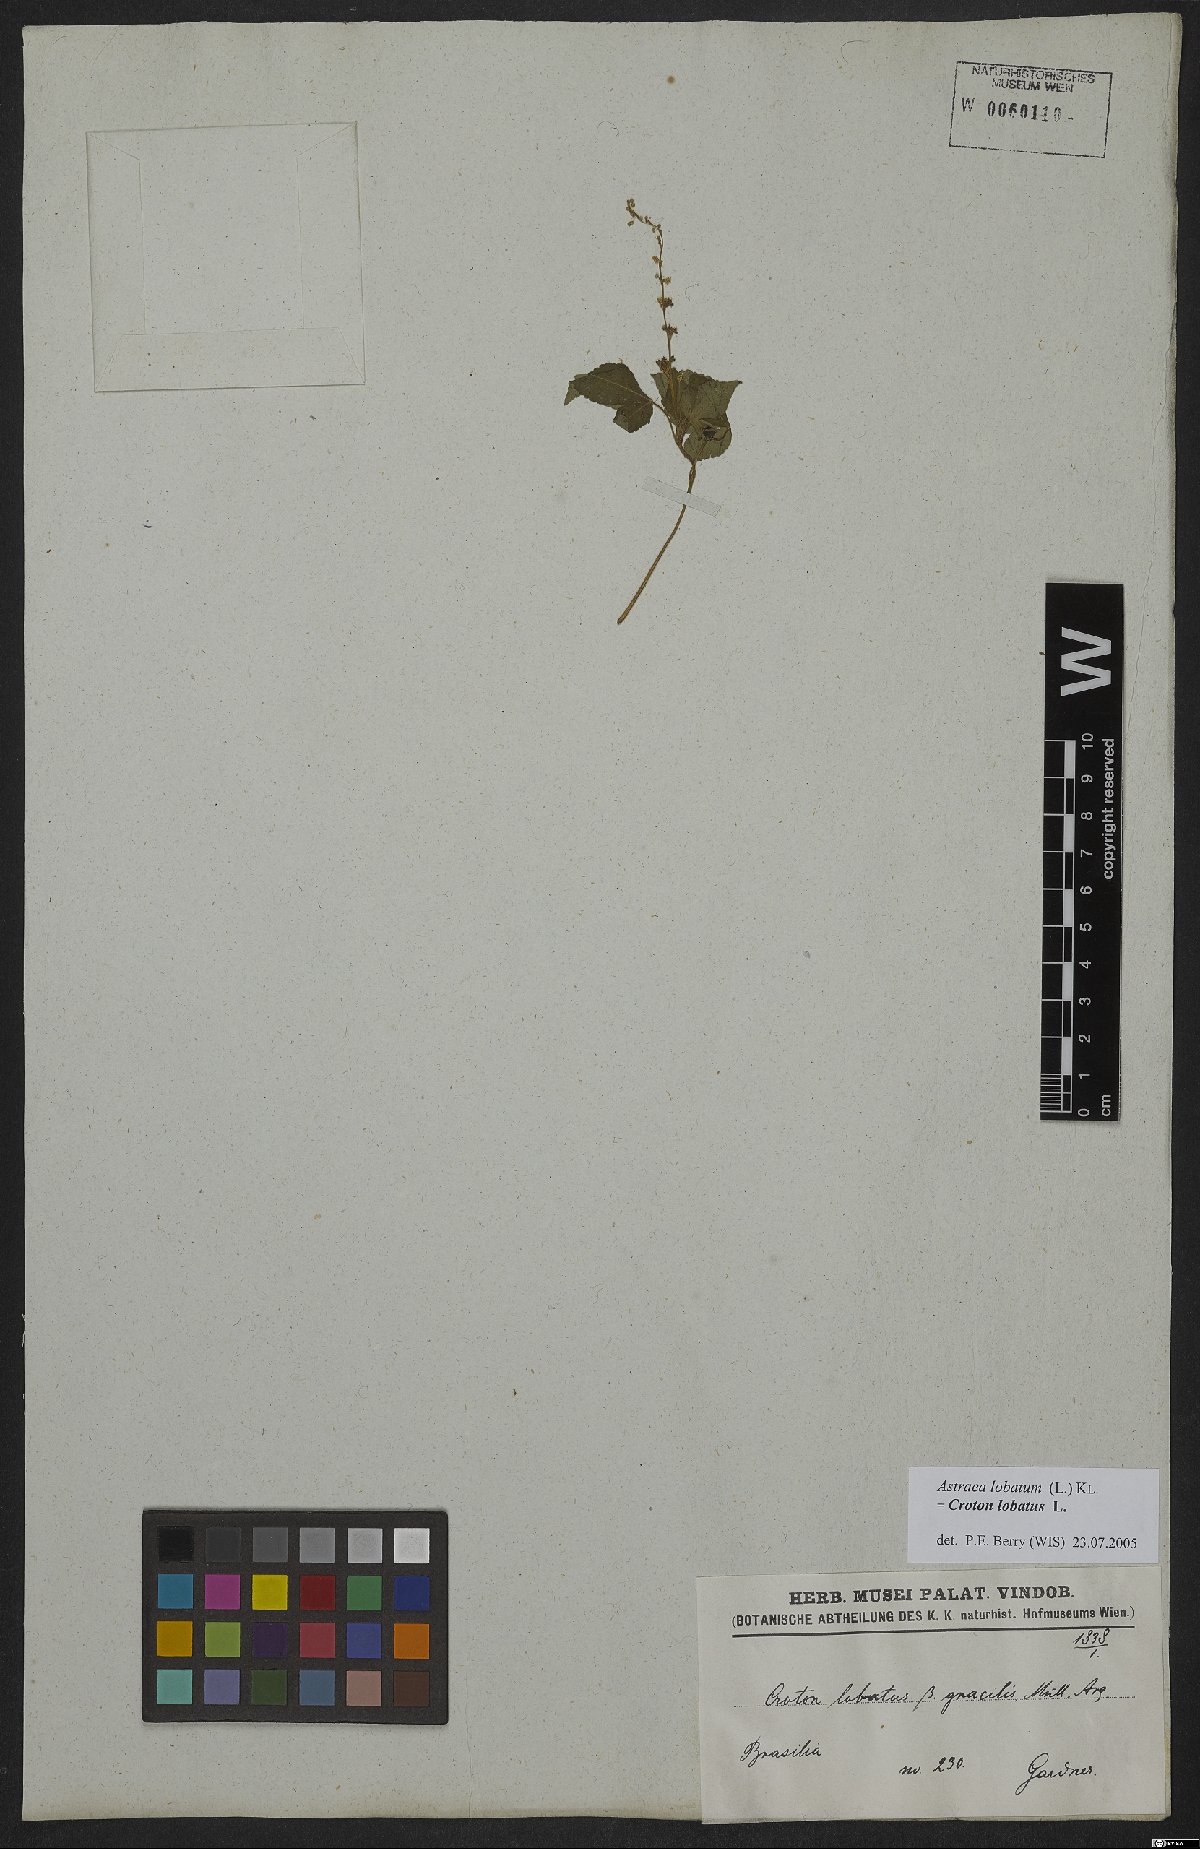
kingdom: Plantae
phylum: Tracheophyta
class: Magnoliopsida
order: Malpighiales
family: Euphorbiaceae
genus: Croton
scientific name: Croton lobatus
